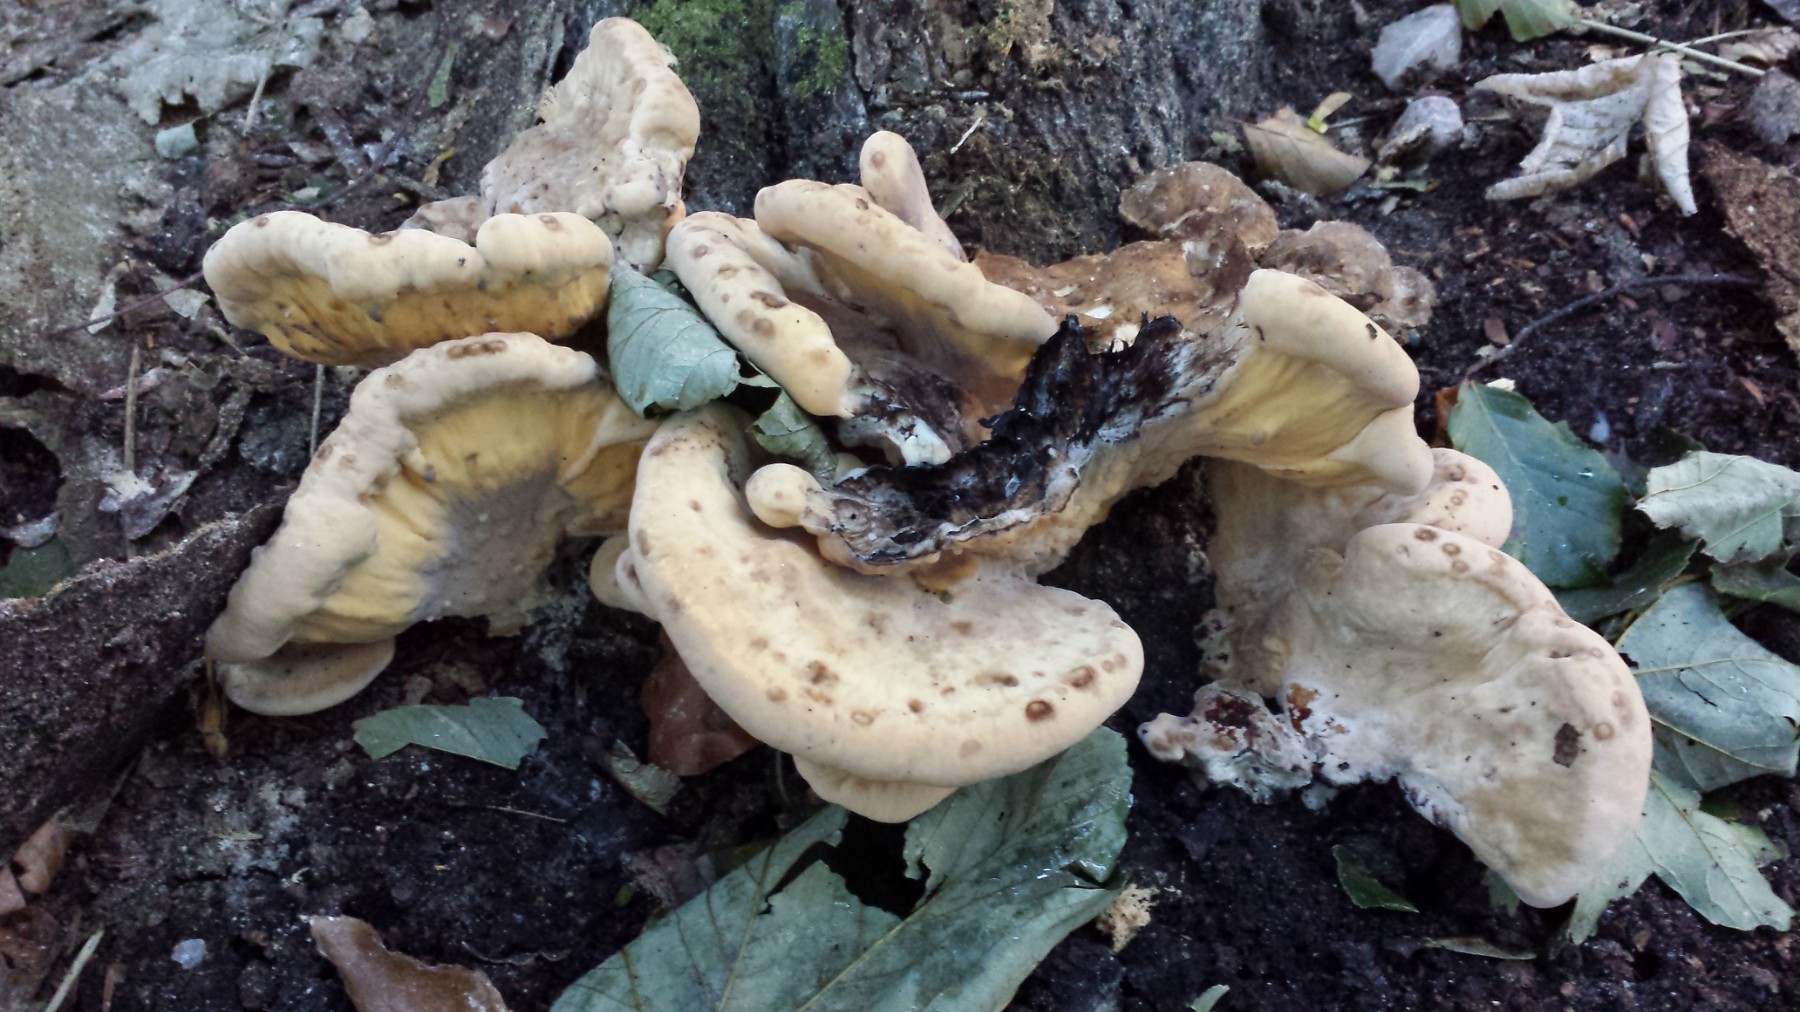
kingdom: Fungi
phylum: Basidiomycota
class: Agaricomycetes
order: Polyporales
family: Meripilaceae
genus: Meripilus
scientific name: Meripilus giganteus
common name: kæmpeporesvamp
